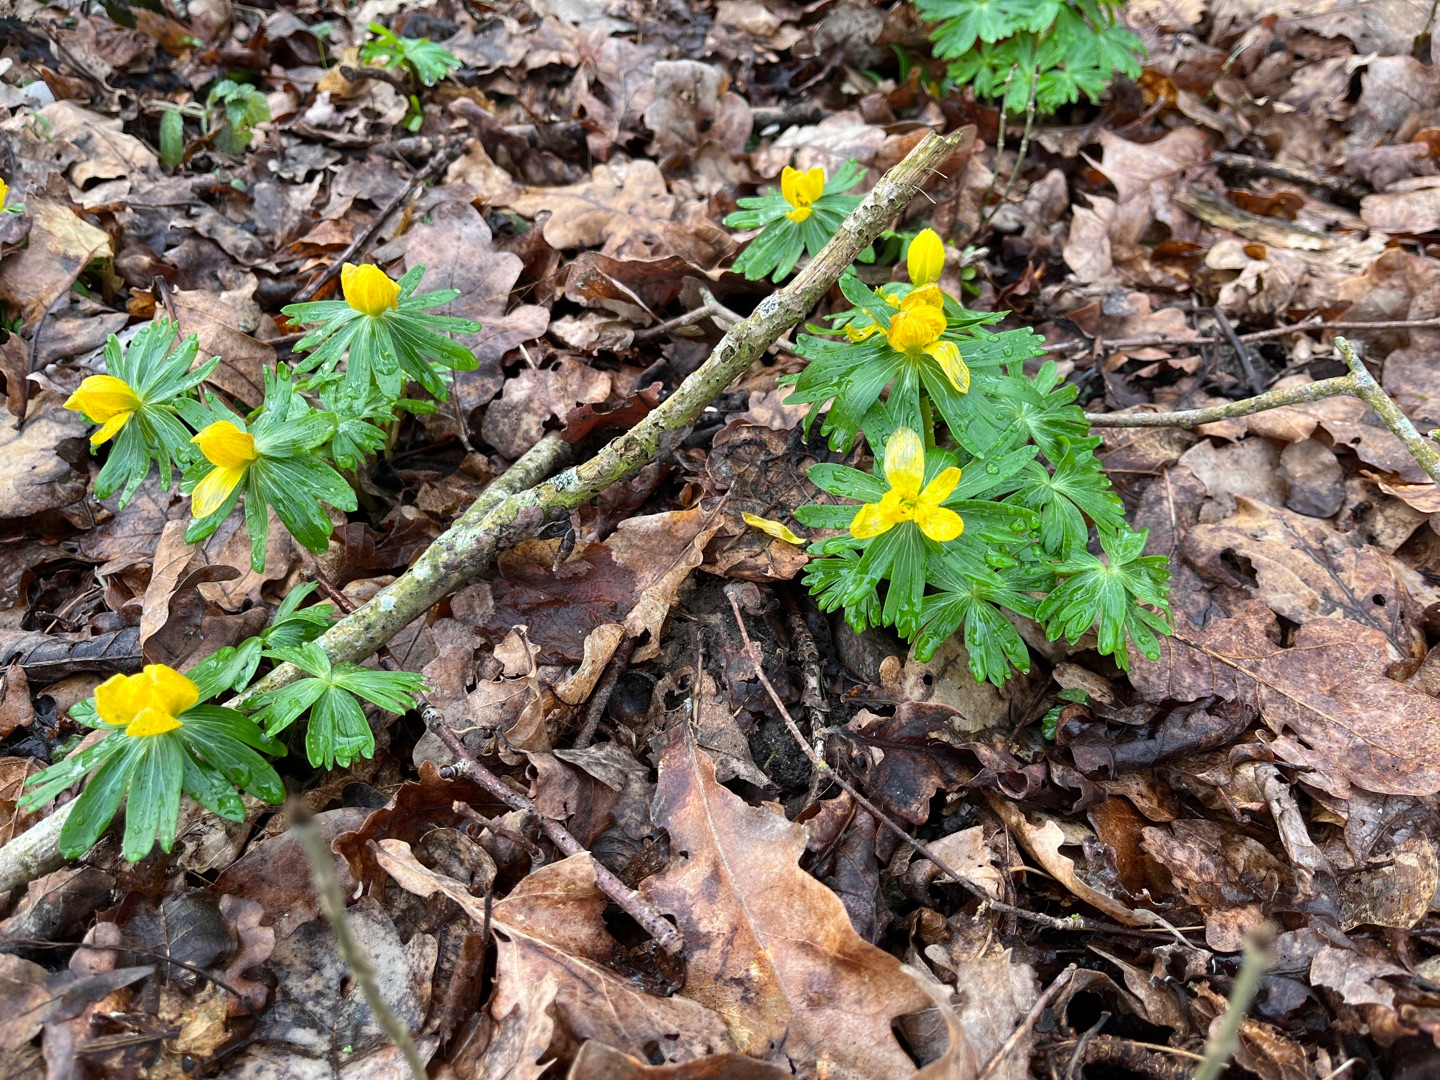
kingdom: Plantae
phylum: Tracheophyta
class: Magnoliopsida
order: Ranunculales
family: Ranunculaceae
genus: Eranthis
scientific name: Eranthis hyemalis
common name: Erantis
